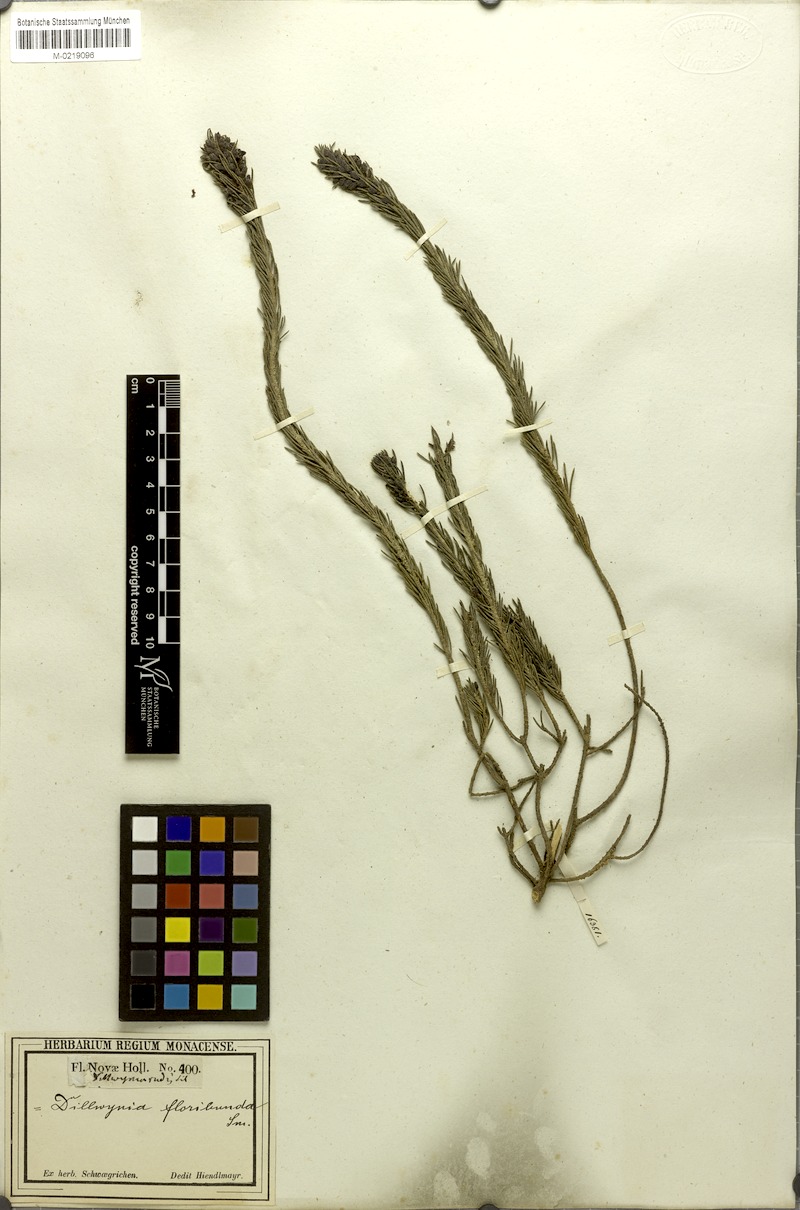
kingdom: Plantae
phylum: Tracheophyta
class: Magnoliopsida
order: Fabales
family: Fabaceae
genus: Dillwynia
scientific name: Dillwynia sericea
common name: Showy parrot-pea
